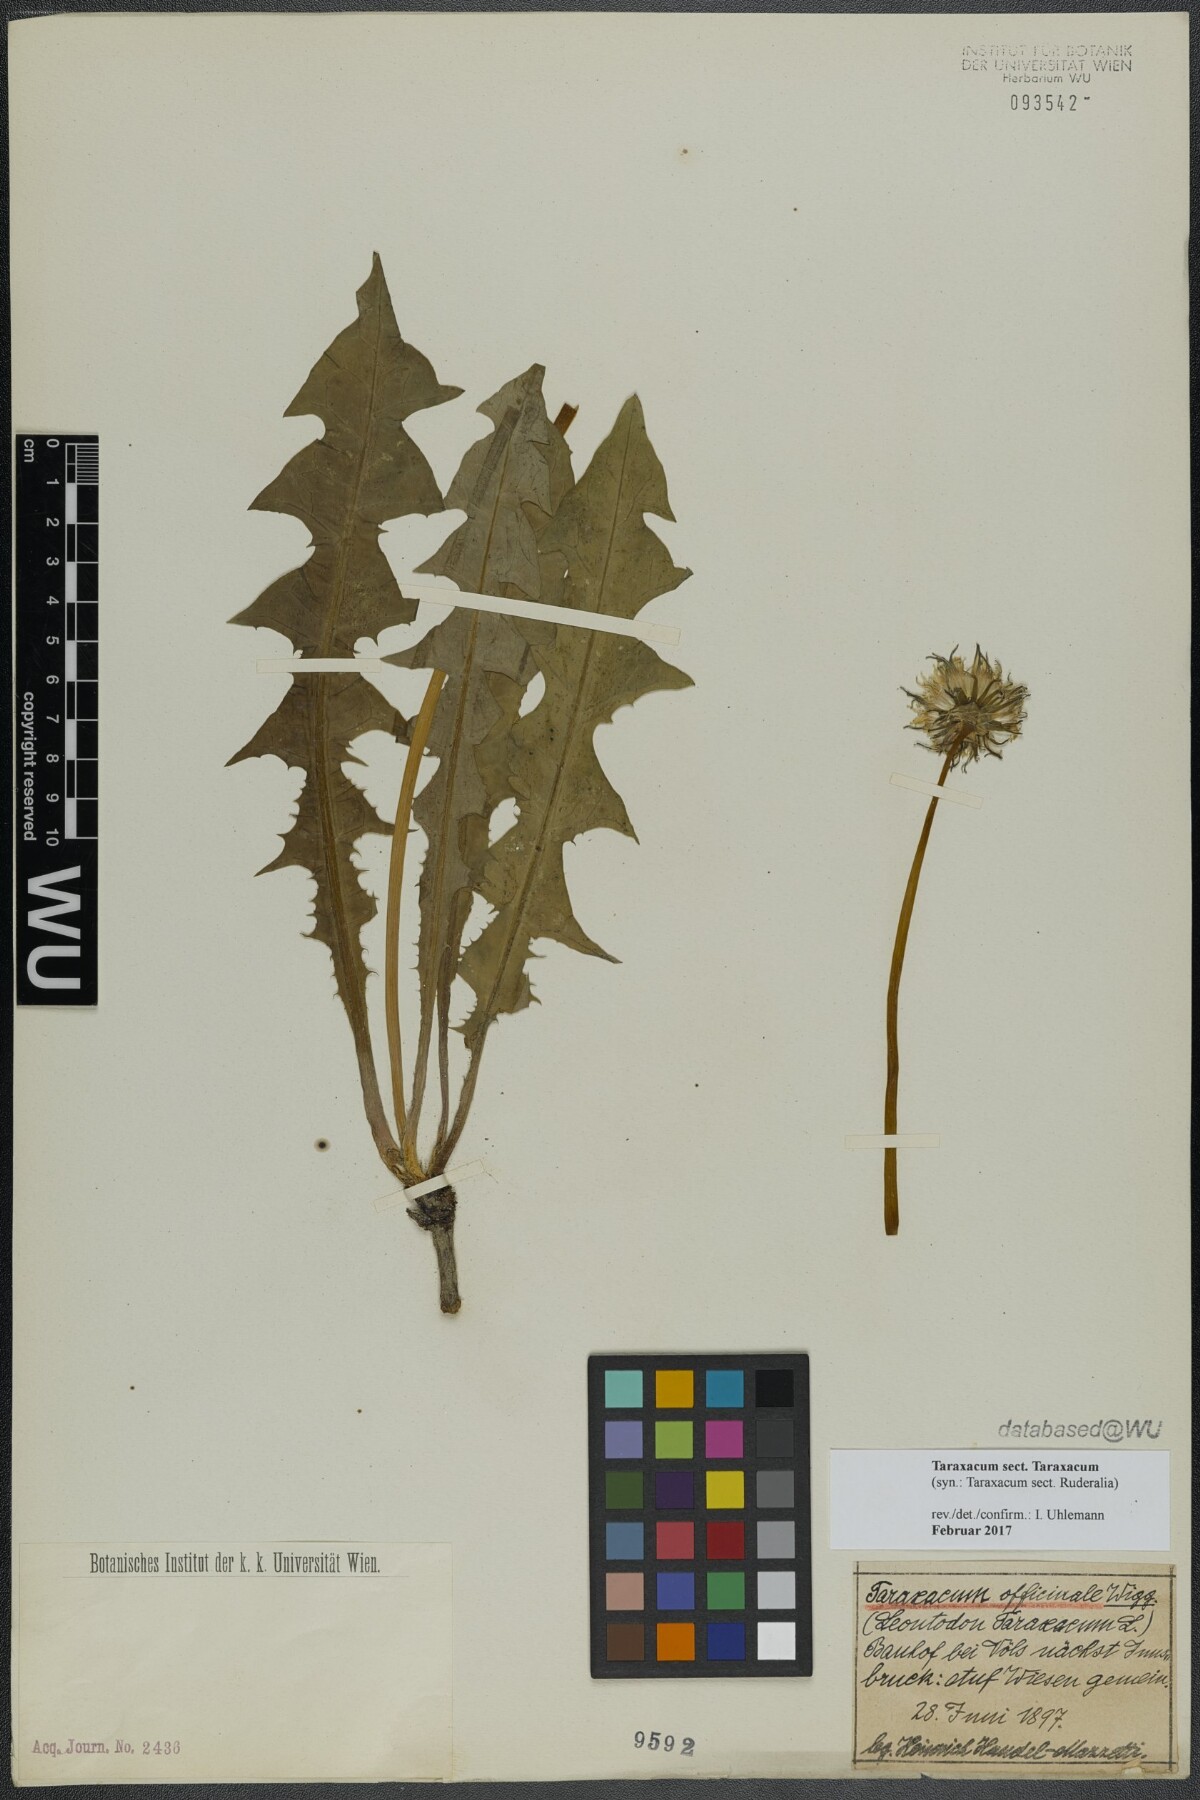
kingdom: Plantae
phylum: Tracheophyta
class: Magnoliopsida
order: Asterales
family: Asteraceae
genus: Taraxacum
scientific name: Taraxacum
